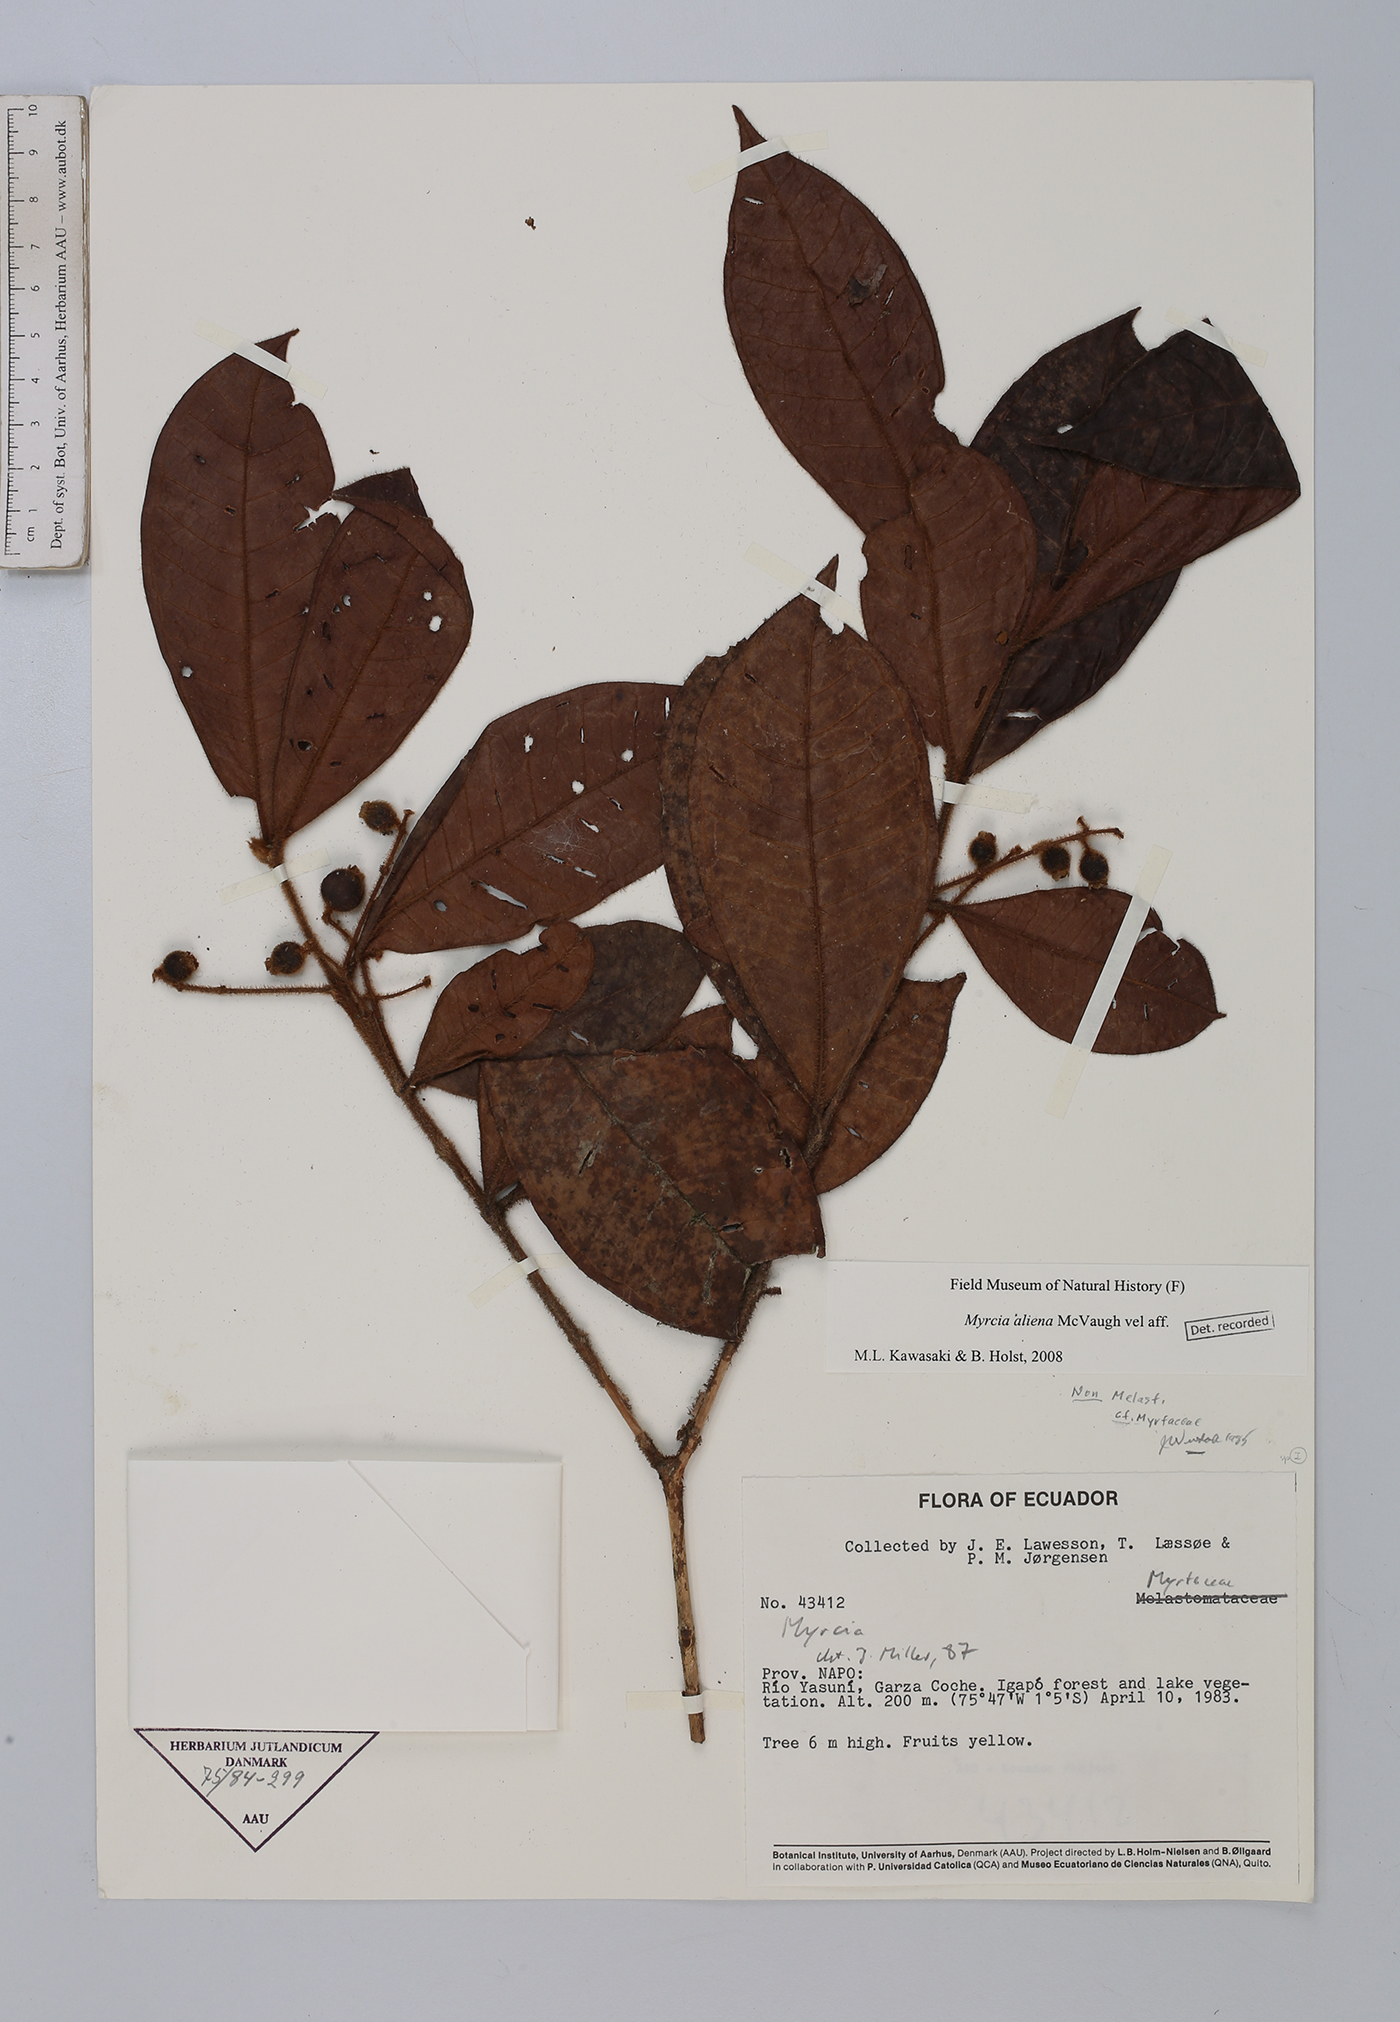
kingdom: Plantae
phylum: Tracheophyta
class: Magnoliopsida
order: Myrtales
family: Myrtaceae
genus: Myrcia
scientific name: Myrcia aliena
